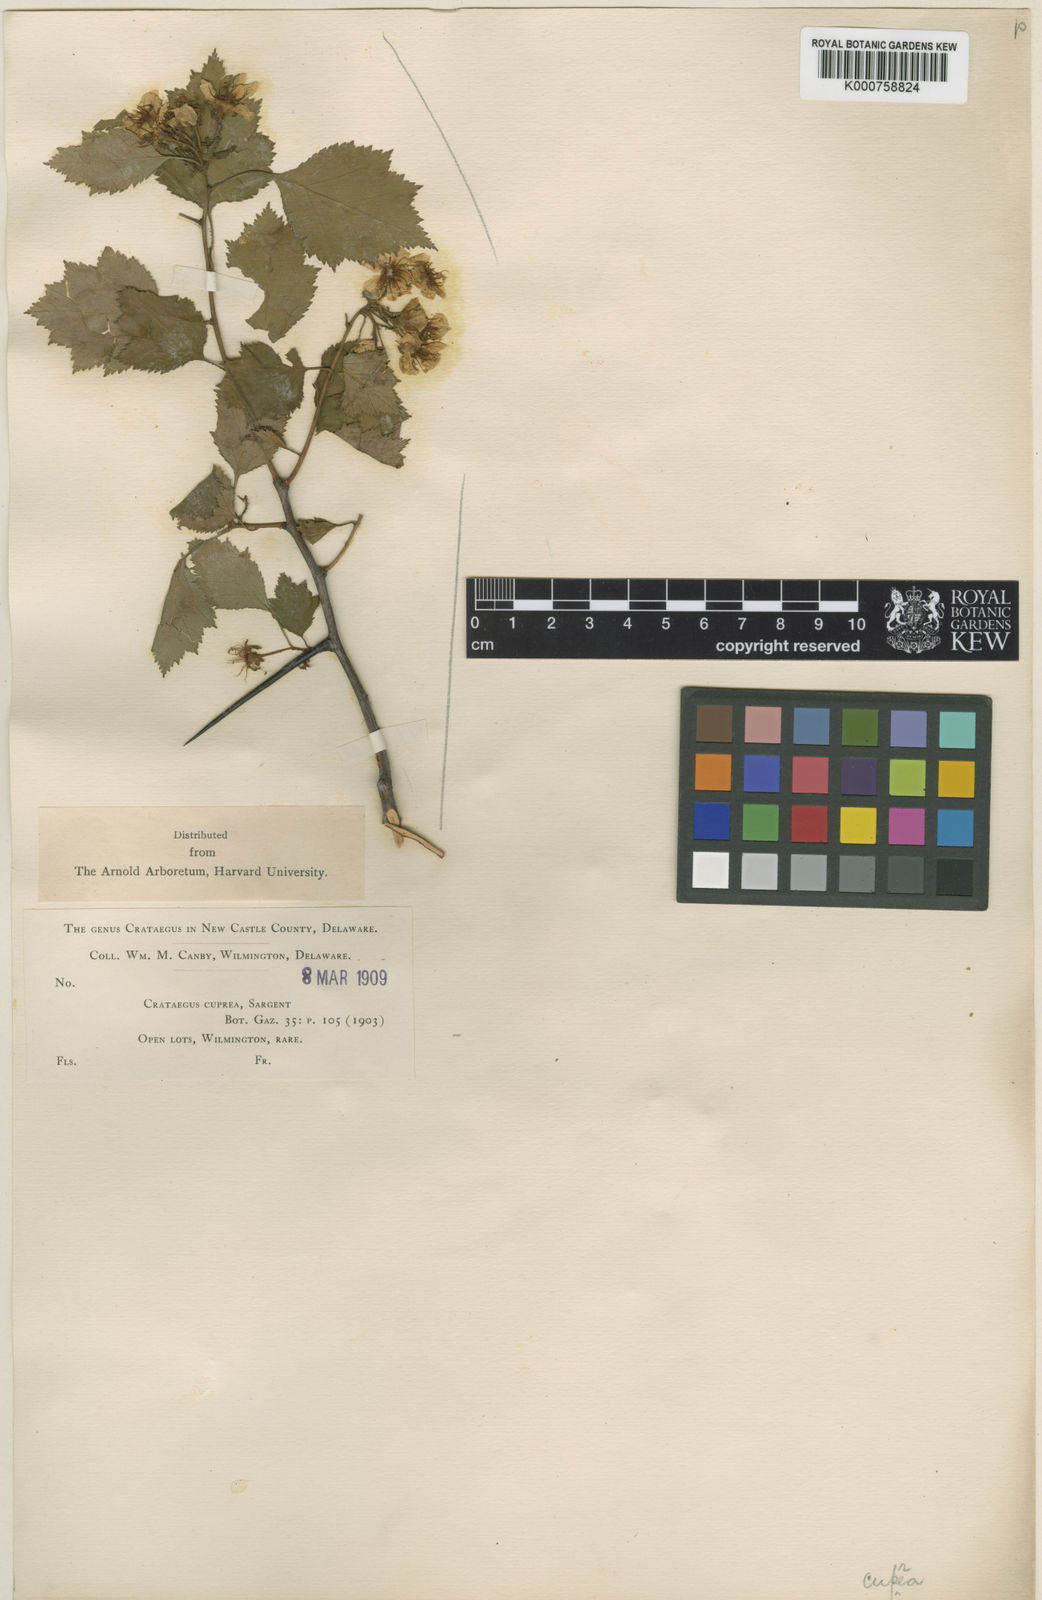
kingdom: Plantae
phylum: Tracheophyta
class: Magnoliopsida
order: Rosales
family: Rosaceae
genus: Crataegus
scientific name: Crataegus cuprea
